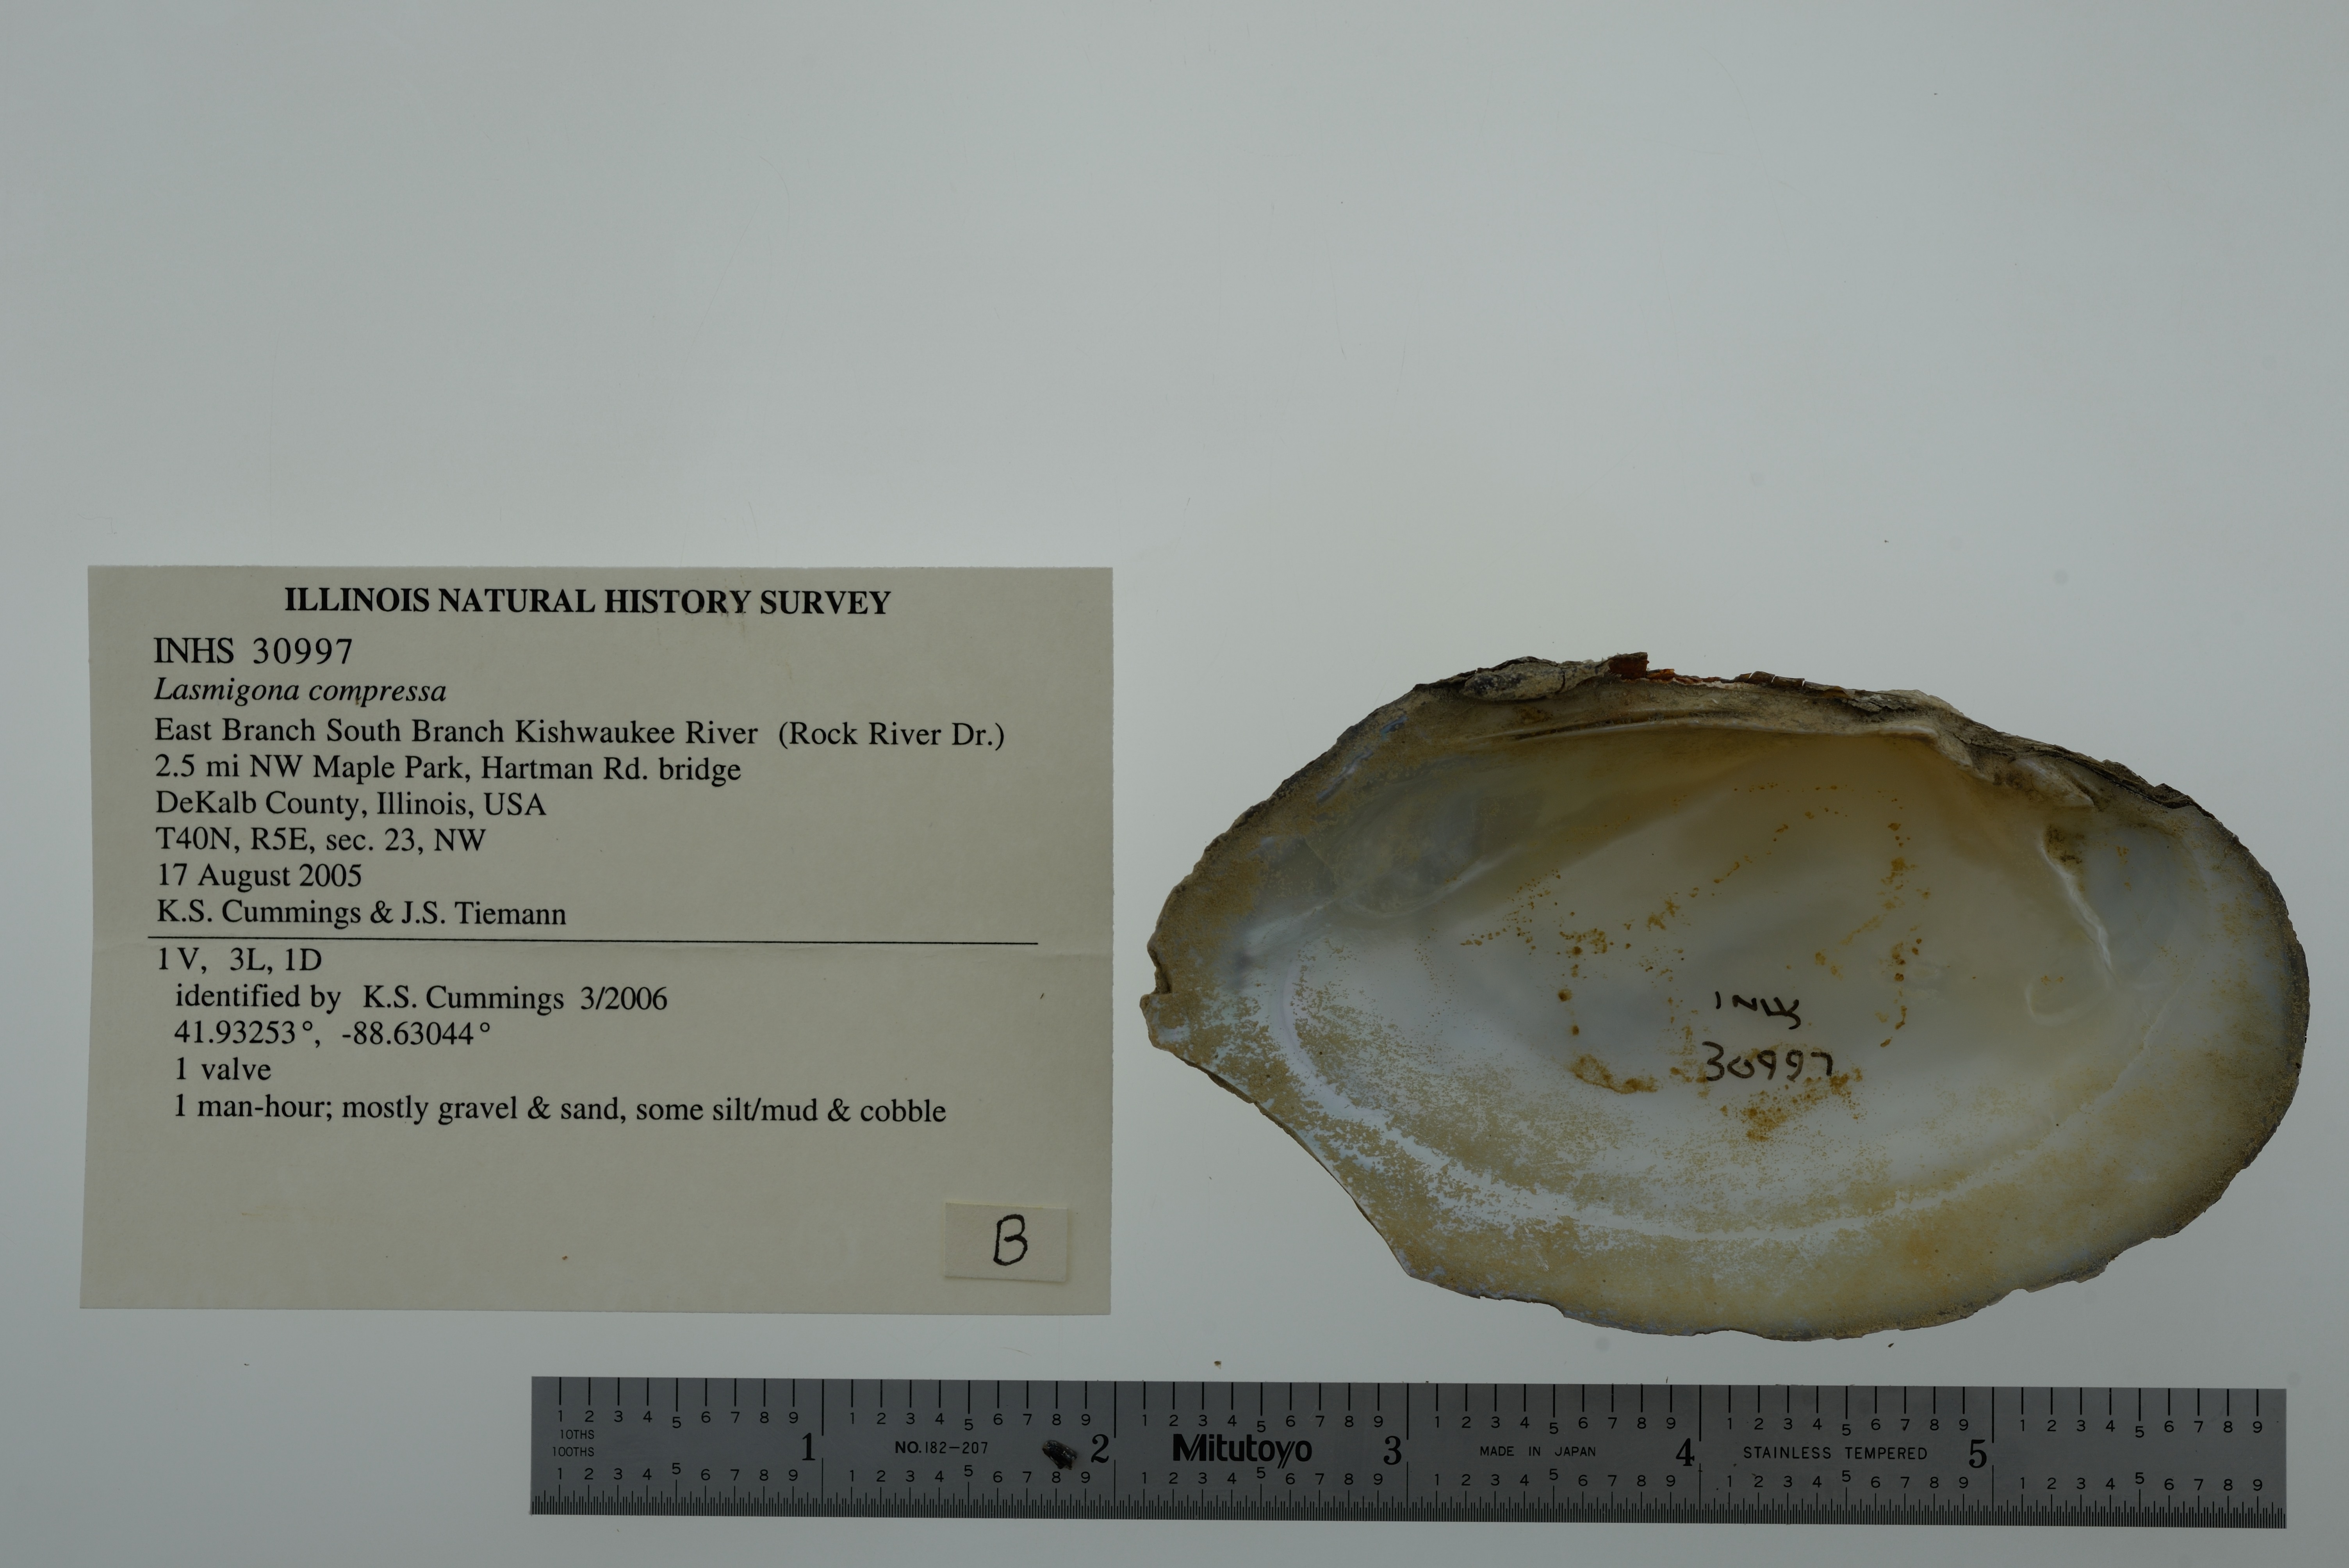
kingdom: Animalia
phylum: Mollusca
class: Bivalvia
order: Unionida
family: Unionidae
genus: Lasmigona
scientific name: Lasmigona compressa
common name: Creek heelsplitter
